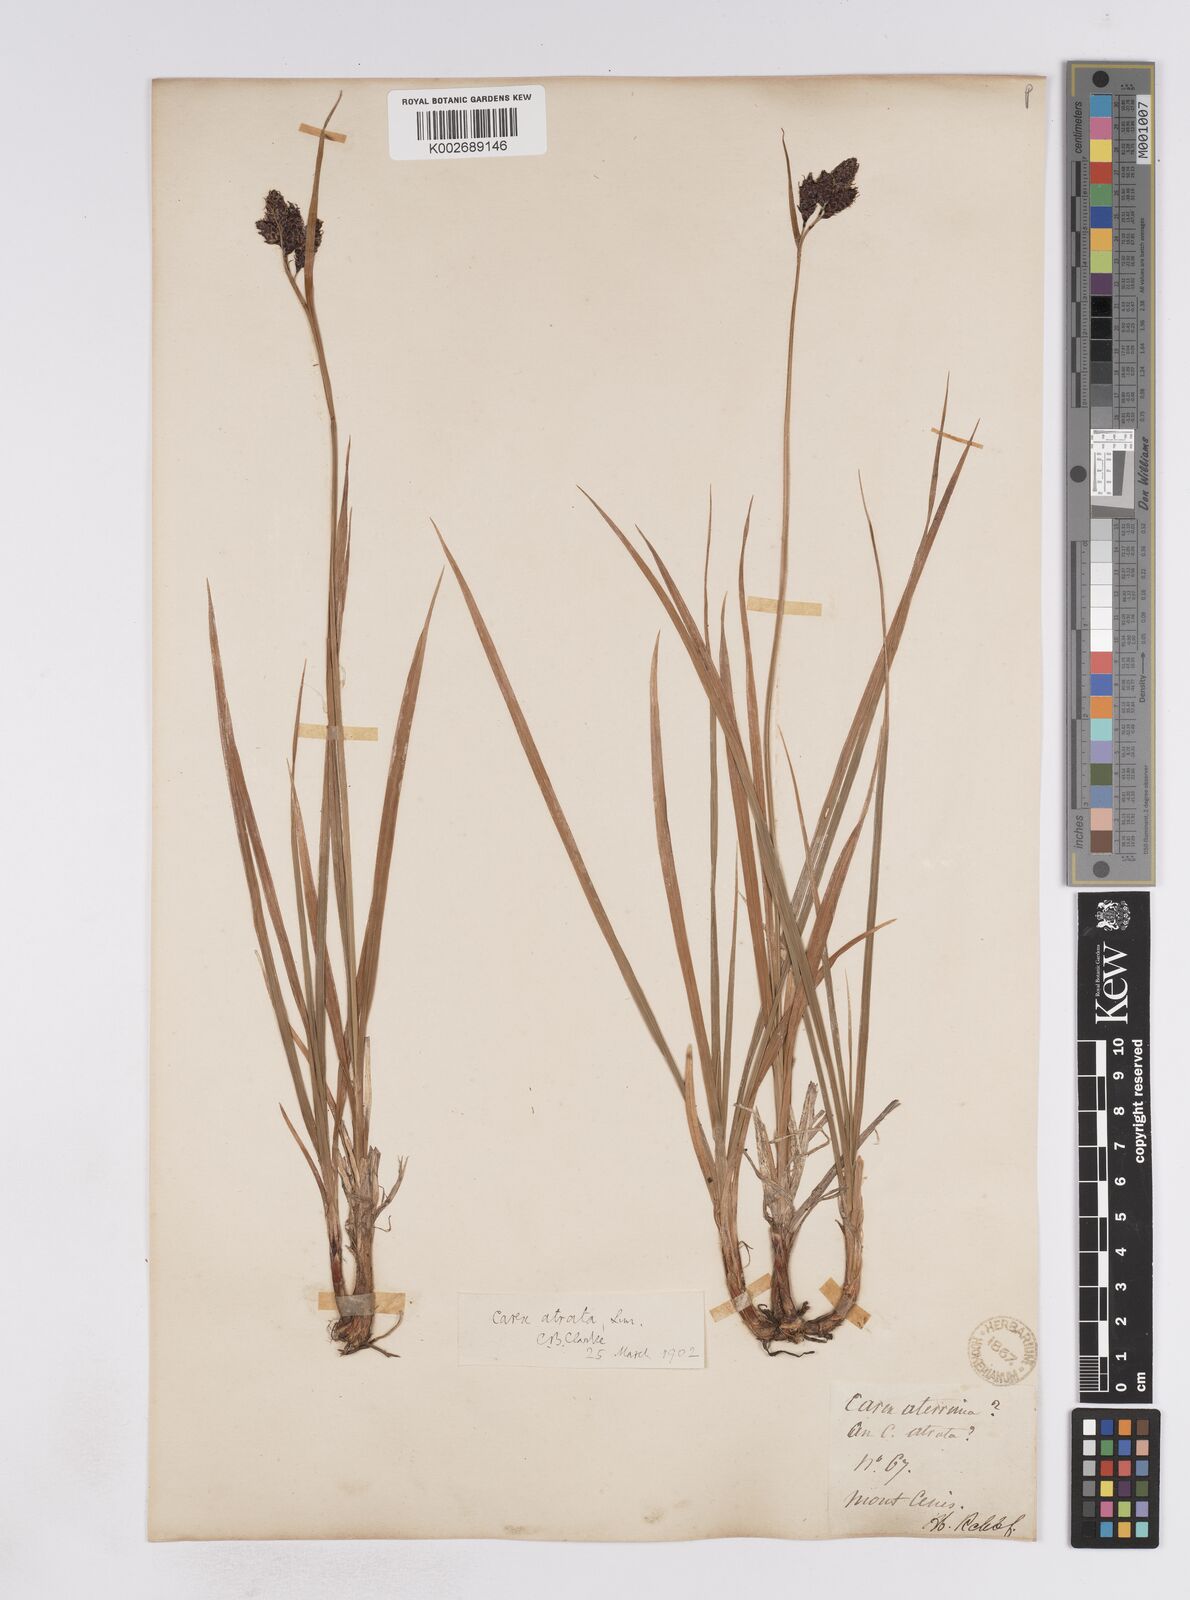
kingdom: Plantae
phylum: Tracheophyta
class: Liliopsida
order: Poales
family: Cyperaceae
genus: Carex
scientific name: Carex aterrima
